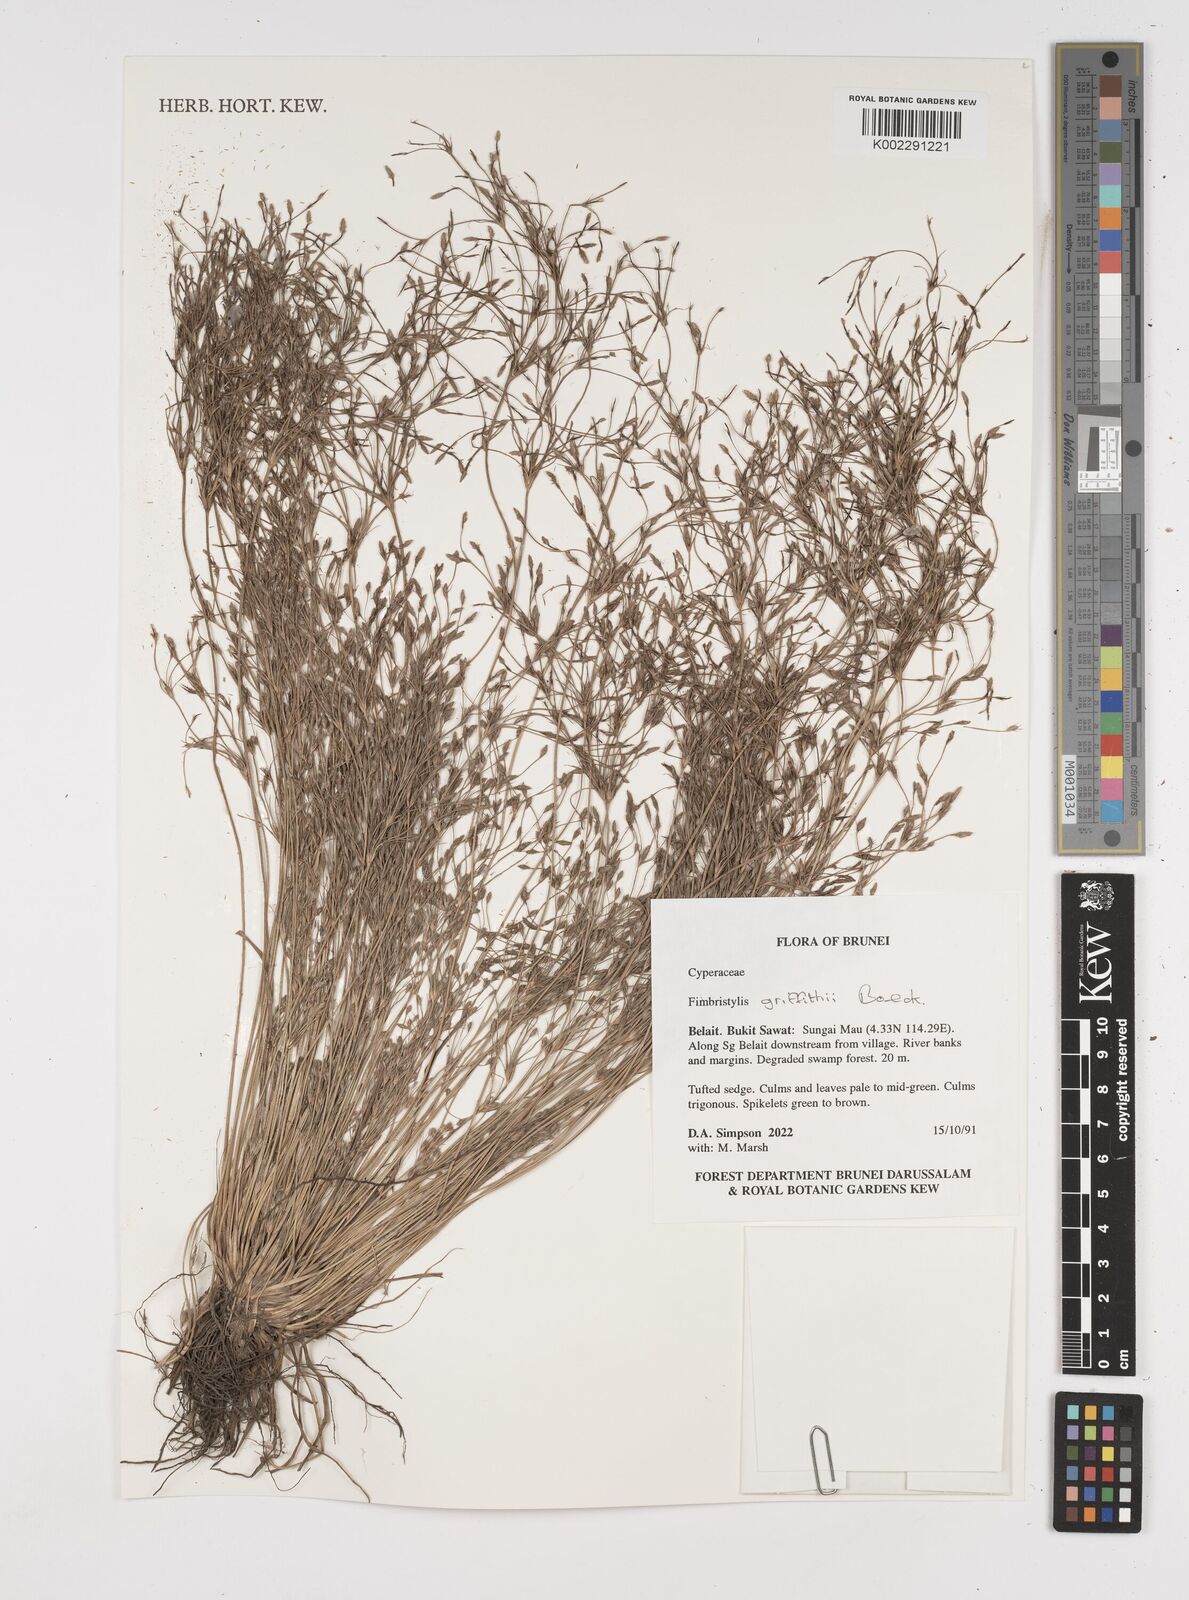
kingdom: Plantae
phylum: Tracheophyta
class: Liliopsida
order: Poales
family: Cyperaceae
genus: Fimbristylis
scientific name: Fimbristylis griffithii
